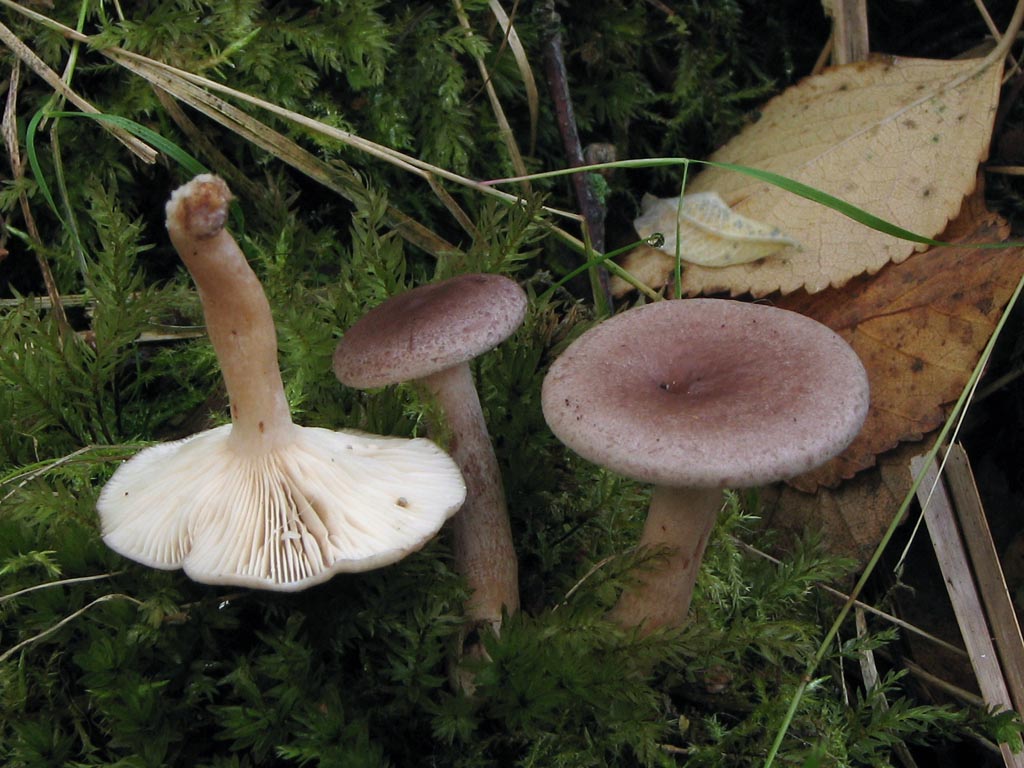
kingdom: Fungi
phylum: Basidiomycota
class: Agaricomycetes
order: Russulales
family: Russulaceae
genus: Lactarius
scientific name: Lactarius vietus
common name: violetgrå mælkehat
